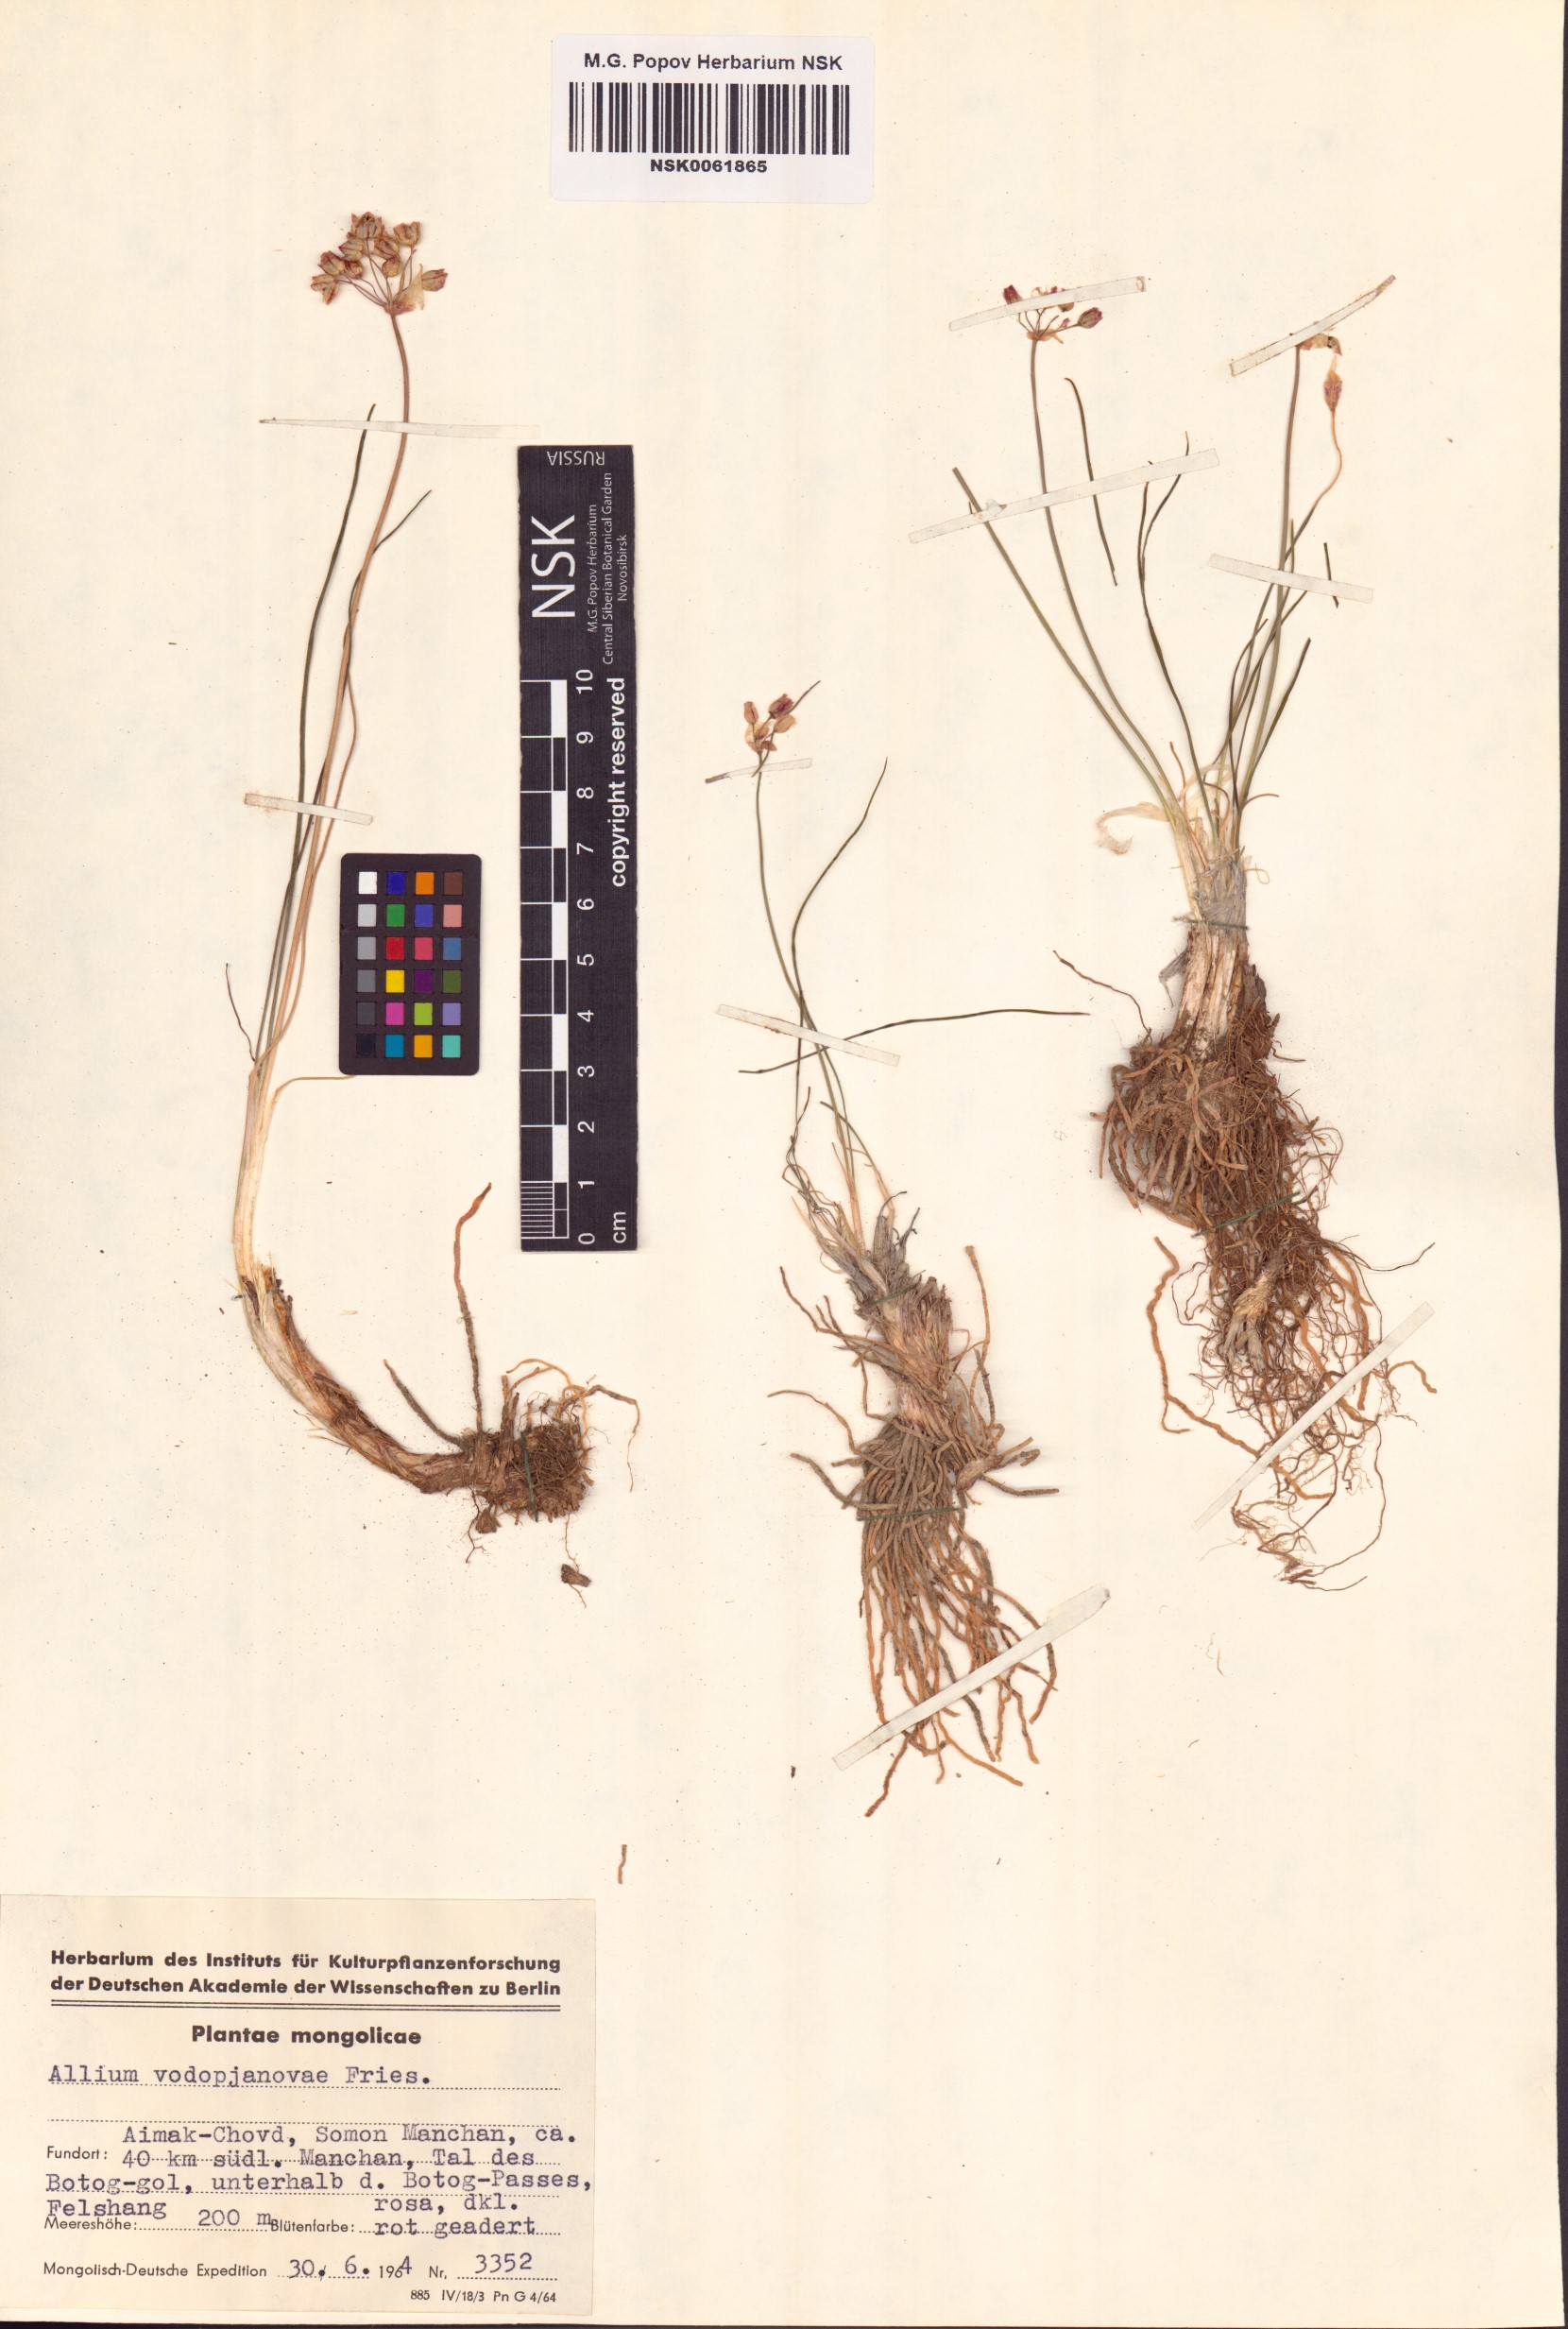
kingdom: Plantae
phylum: Tracheophyta
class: Liliopsida
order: Asparagales
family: Amaryllidaceae
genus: Allium
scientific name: Allium vodopjanovae
